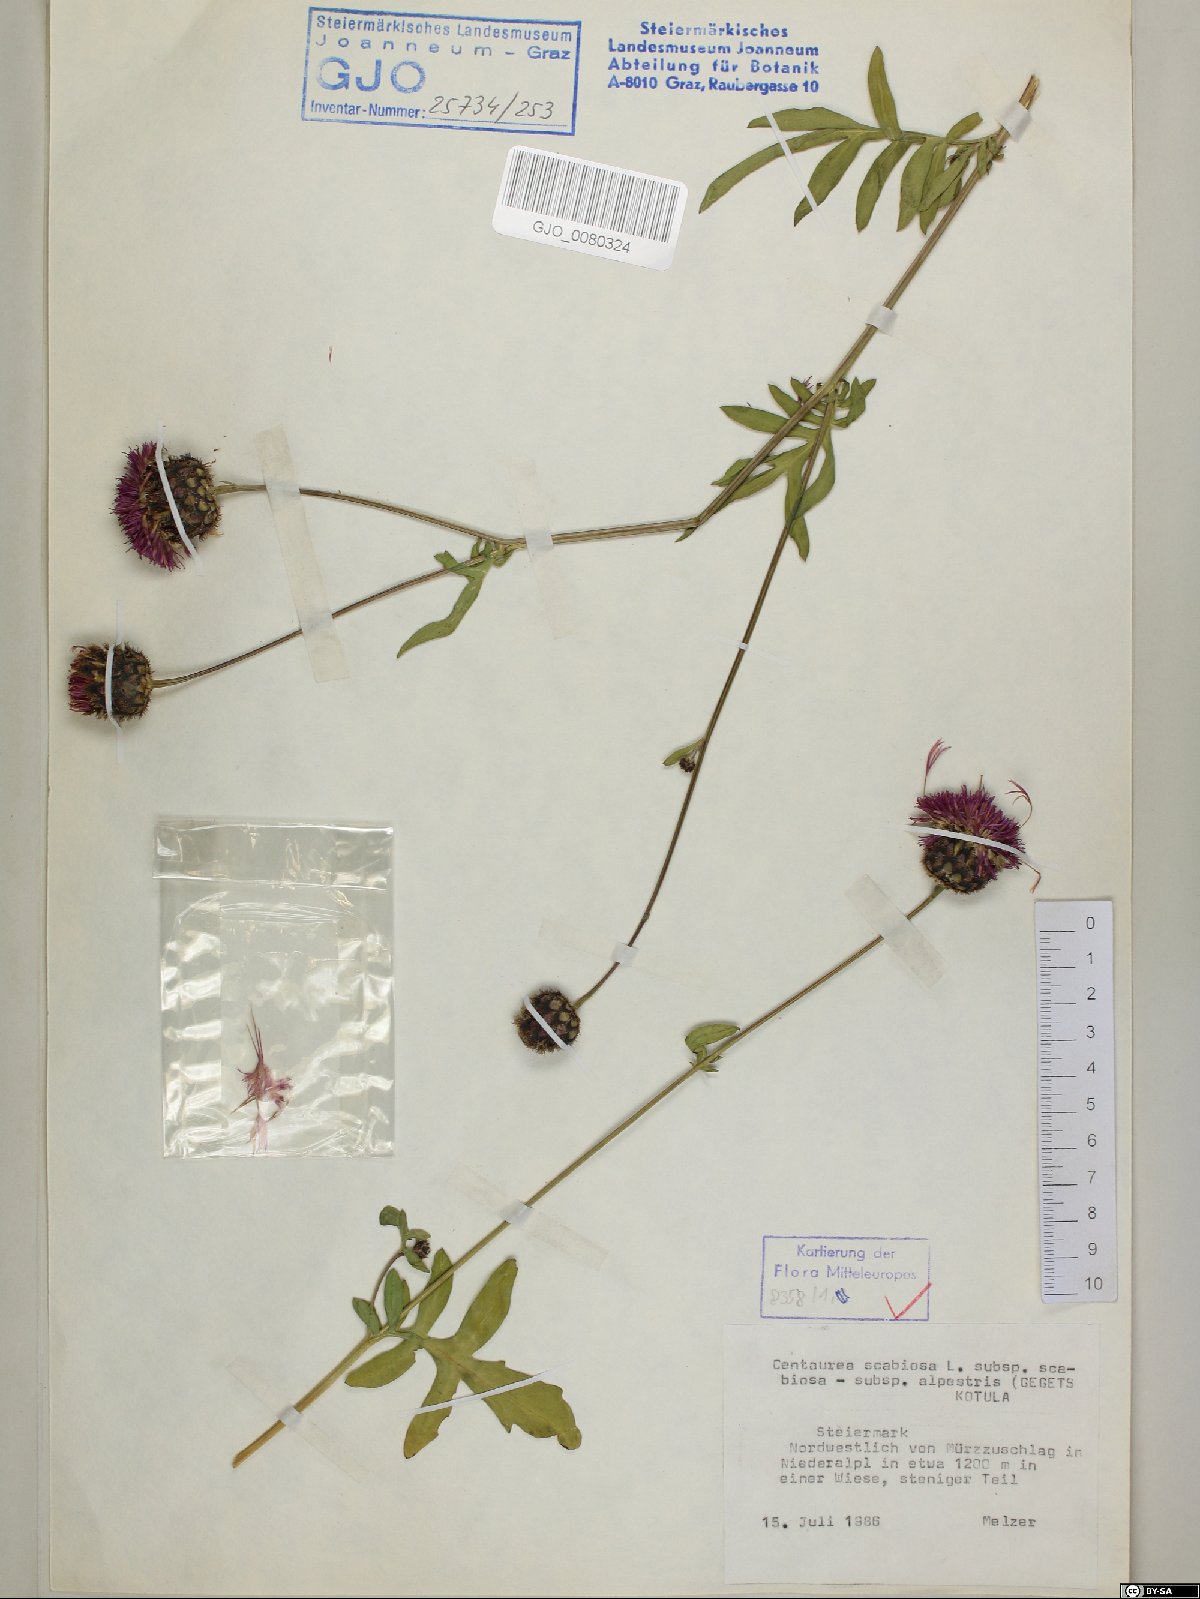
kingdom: Plantae
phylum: Tracheophyta
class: Magnoliopsida
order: Asterales
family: Asteraceae
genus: Centaurea
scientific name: Centaurea scabiosa
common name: Greater knapweed
